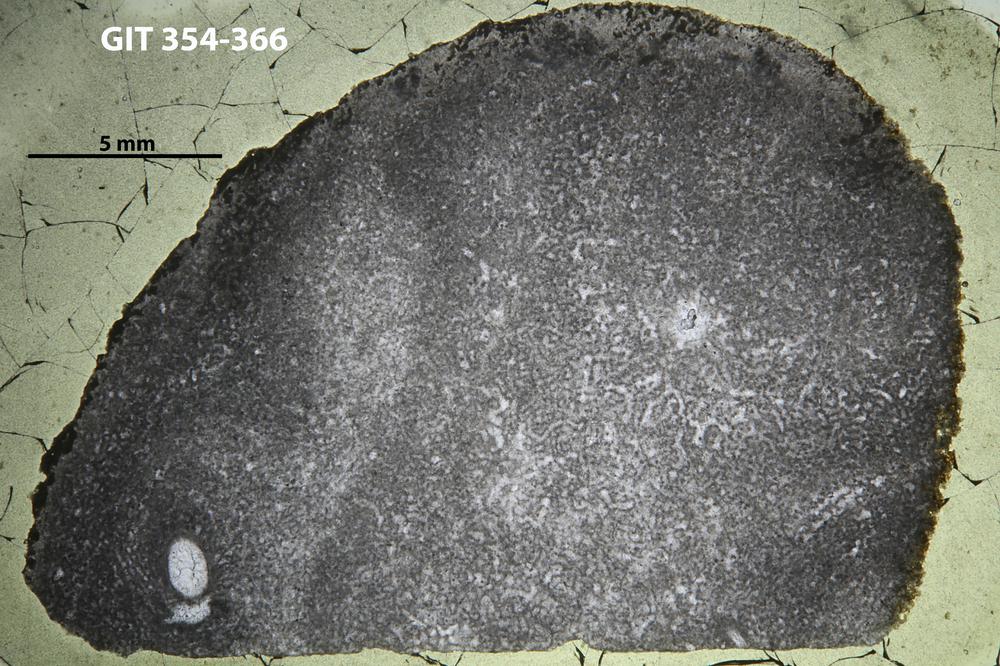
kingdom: Animalia
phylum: Porifera
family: Clathrodictyidae
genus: Clathrodictyon
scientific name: Clathrodictyon boreale
